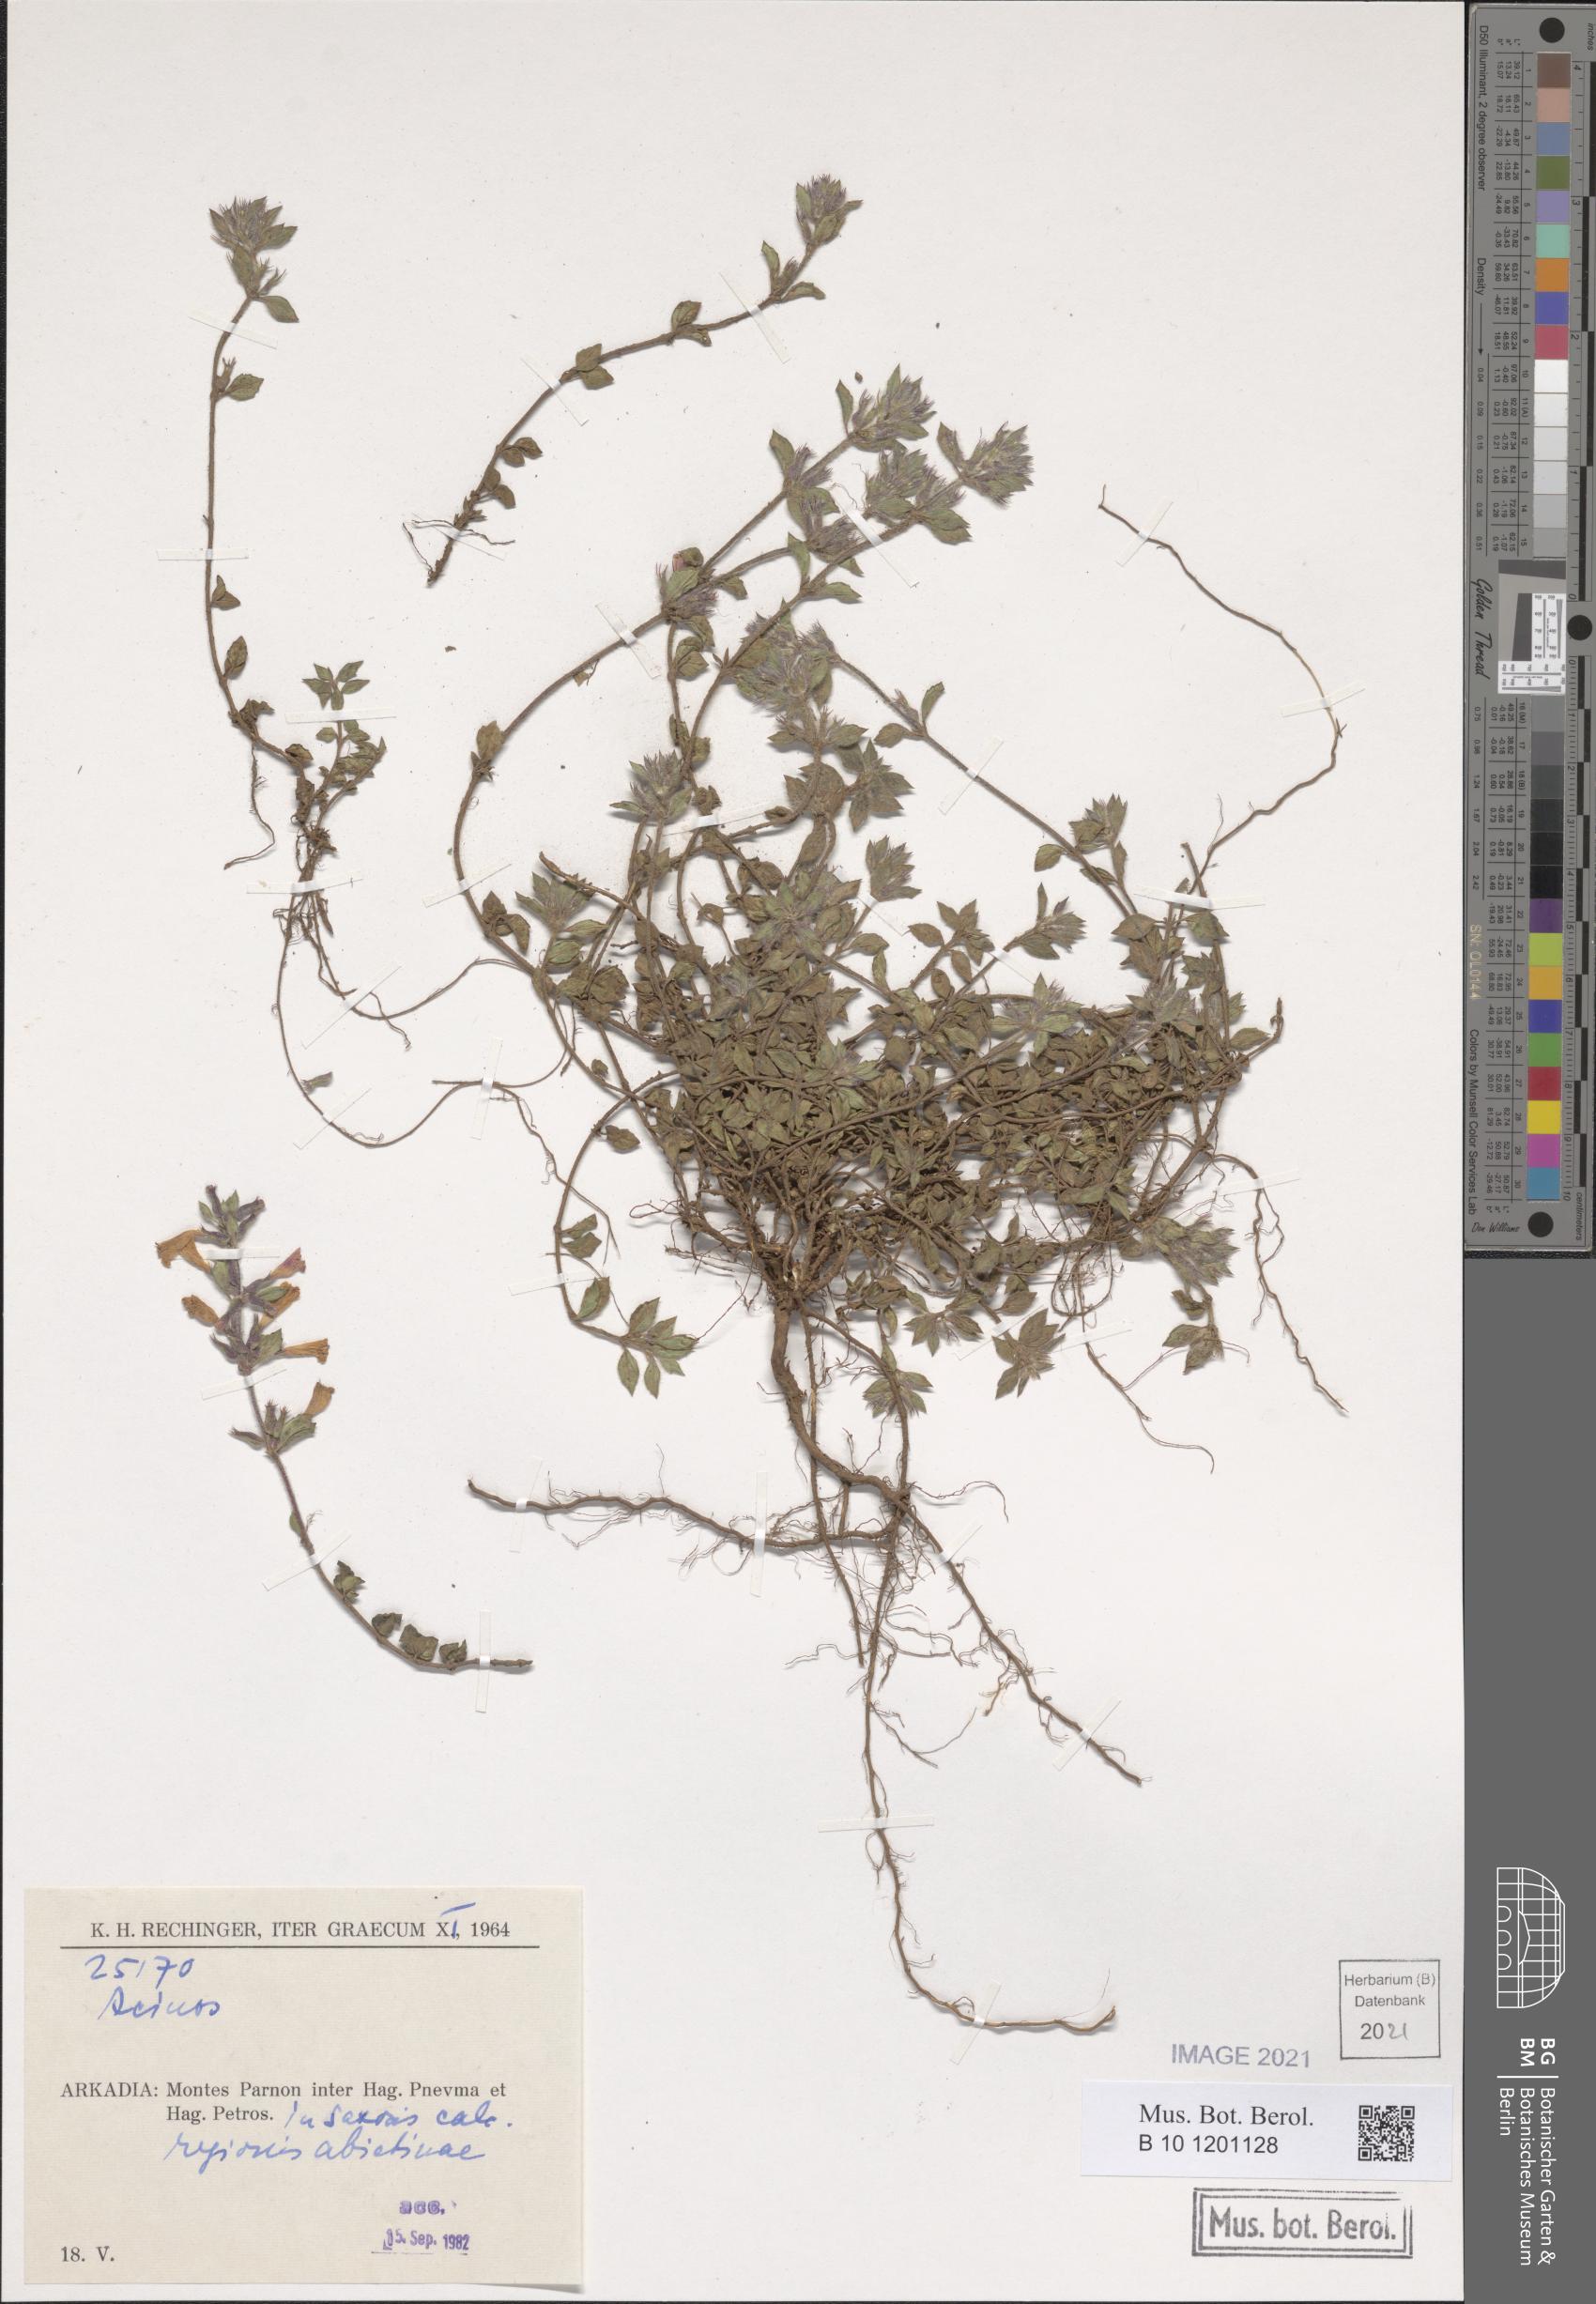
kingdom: Plantae
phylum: Tracheophyta
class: Magnoliopsida
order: Lamiales
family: Lamiaceae
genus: Acinos
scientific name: Acinos
